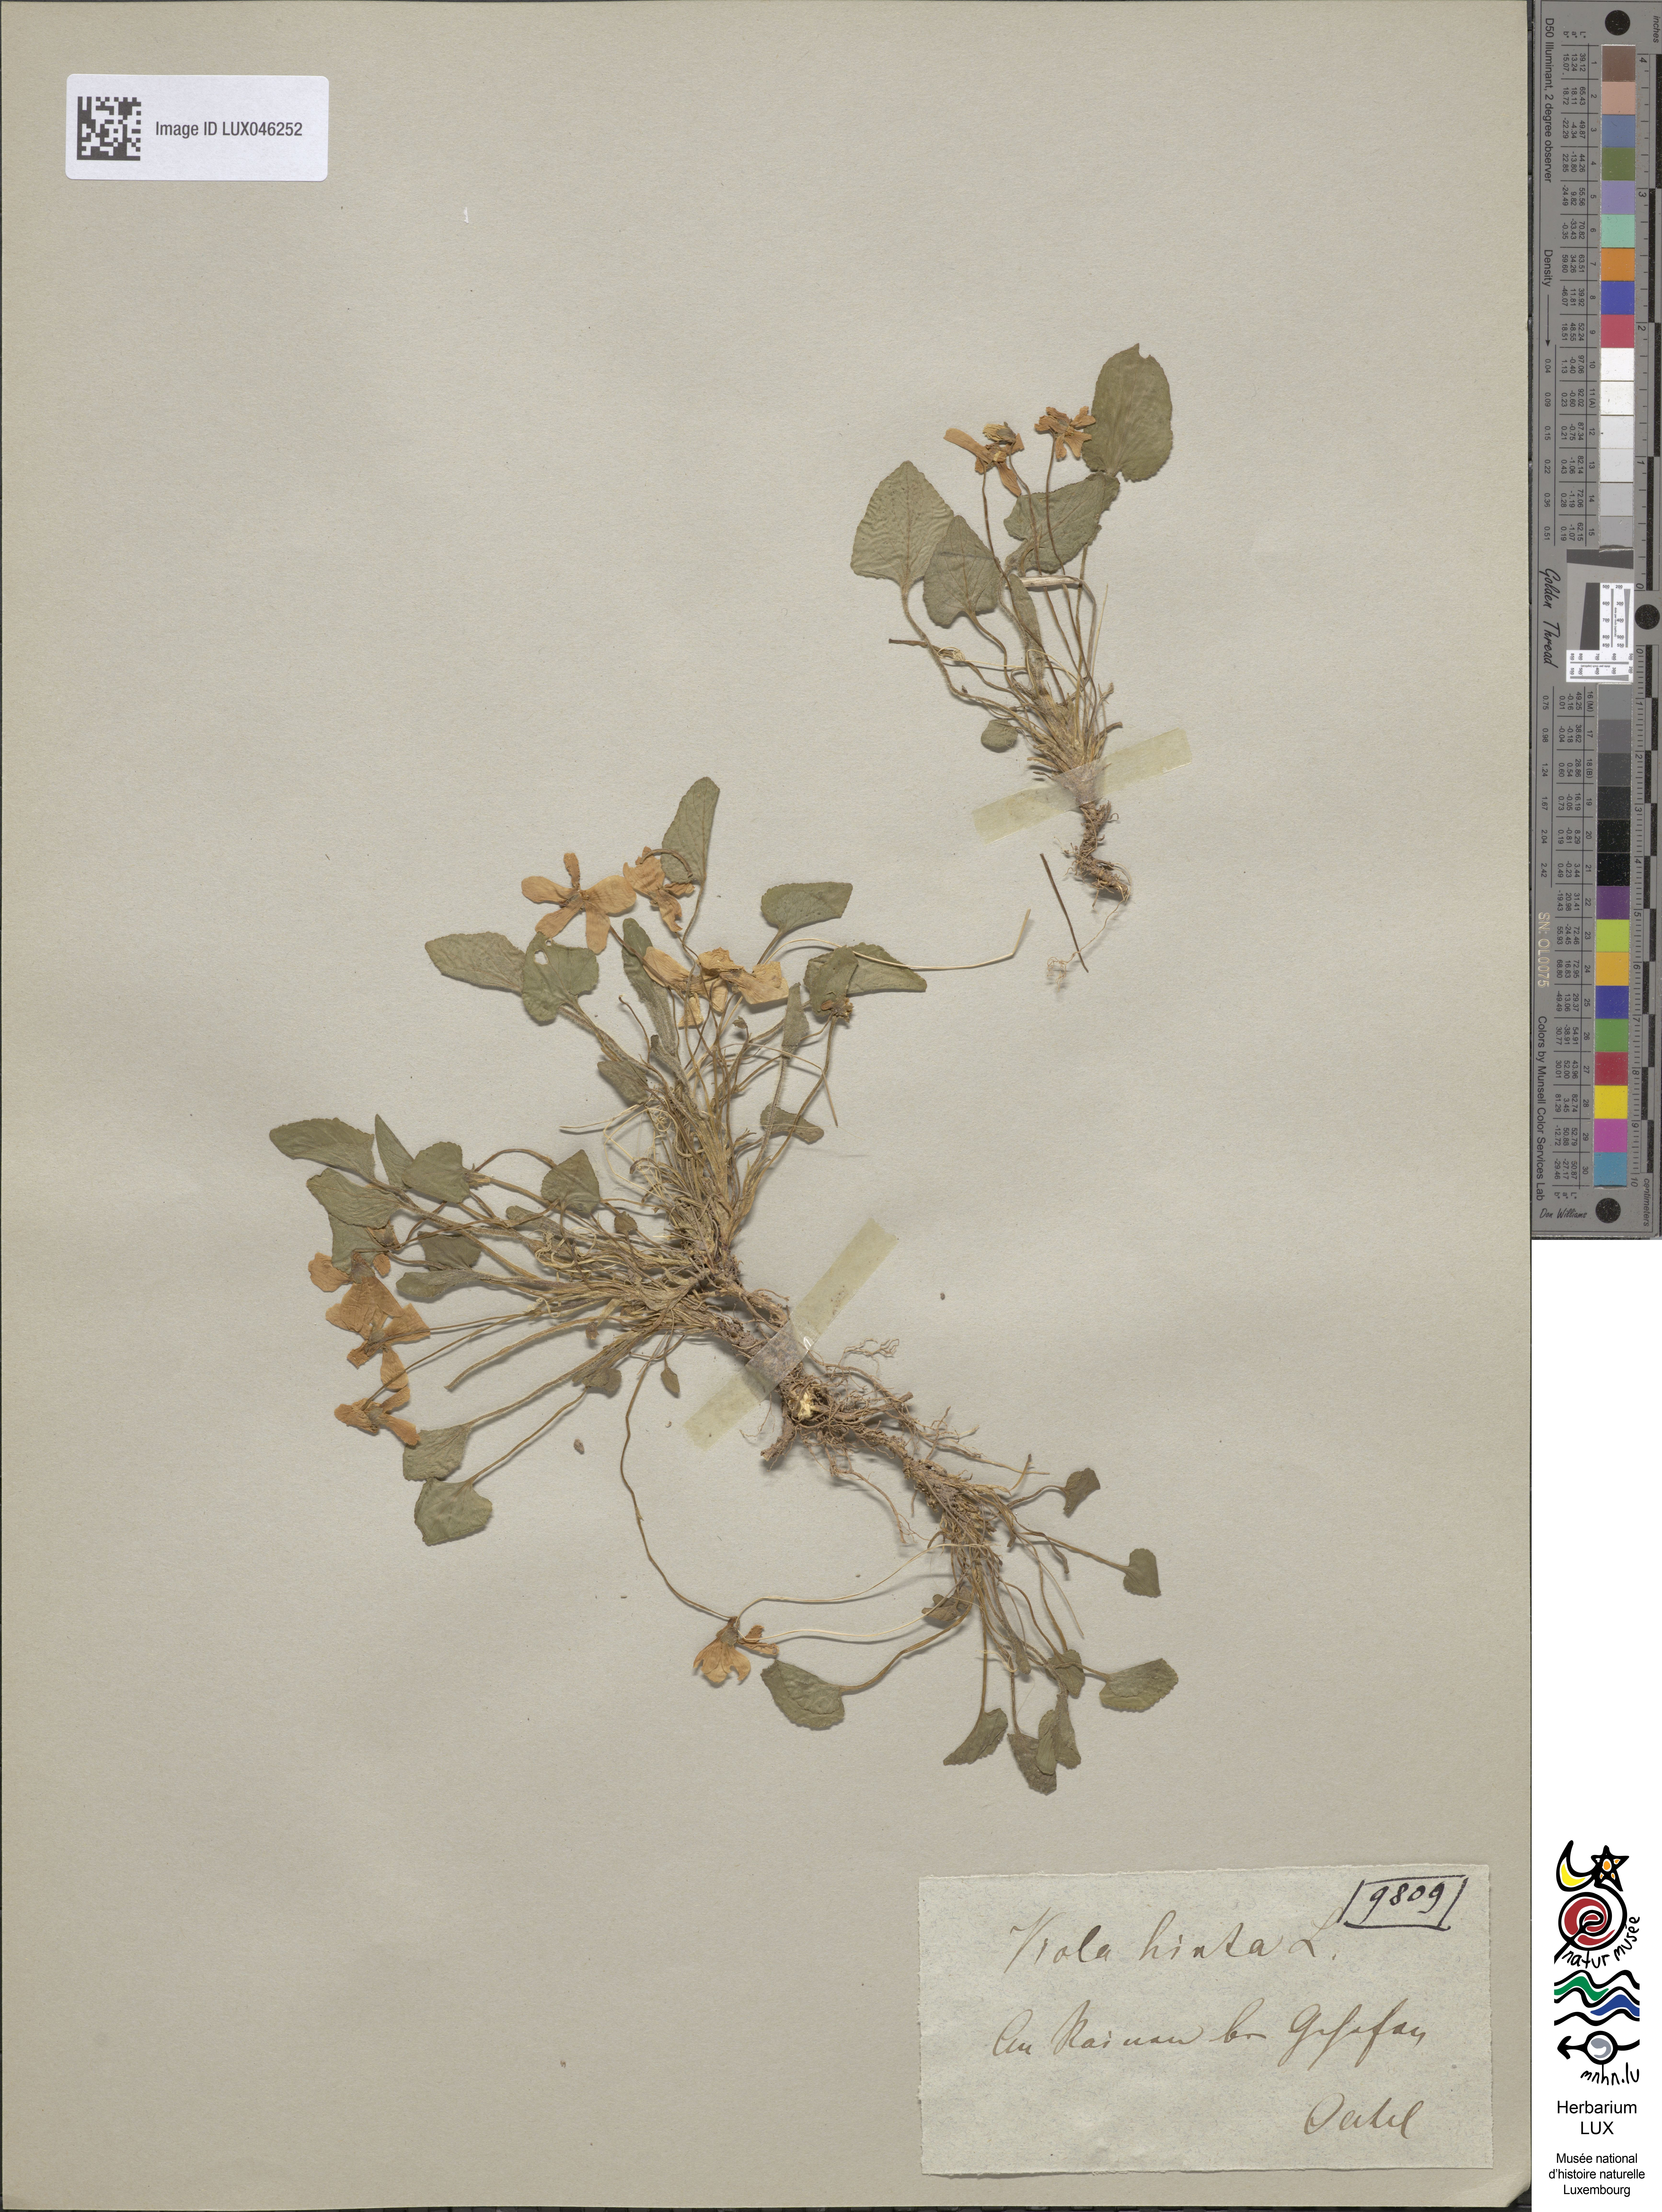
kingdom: Plantae
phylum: Tracheophyta
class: Magnoliopsida
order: Malpighiales
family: Violaceae
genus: Viola
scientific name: Viola hirta
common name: Hairy violet
